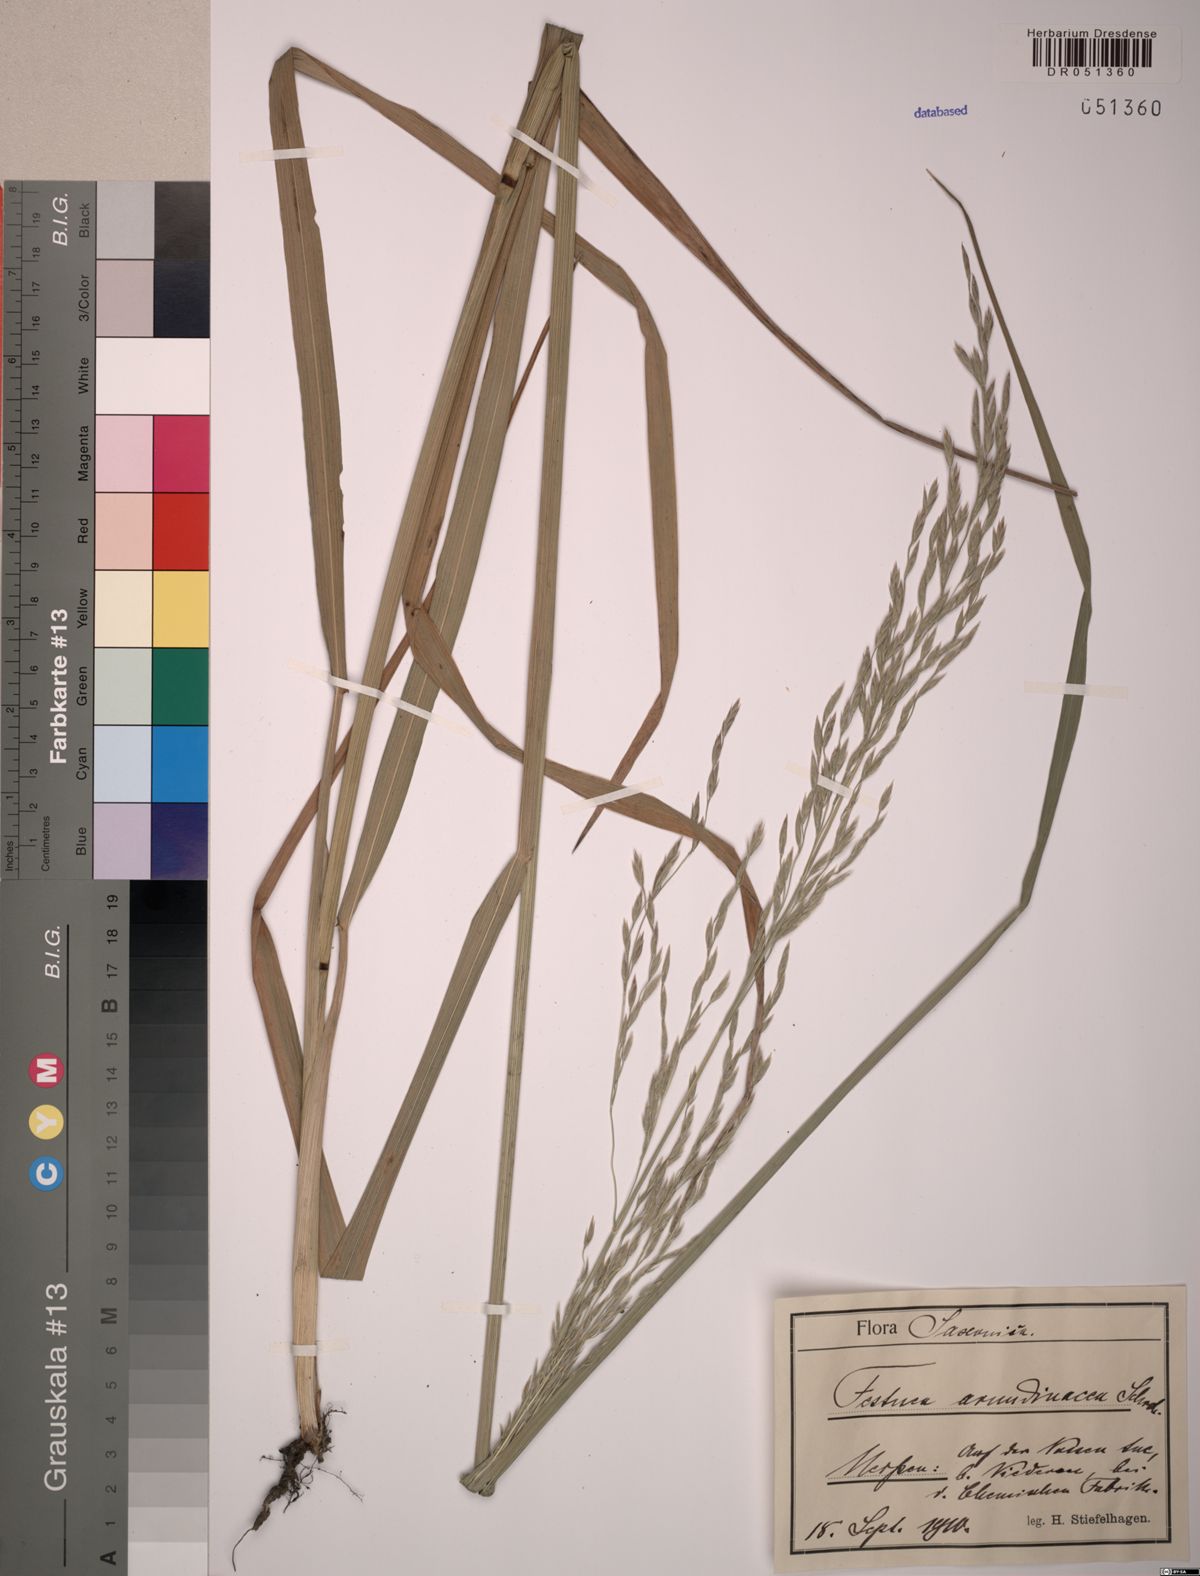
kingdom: Plantae
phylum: Tracheophyta
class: Liliopsida
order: Poales
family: Poaceae
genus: Lolium
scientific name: Lolium arundinaceum
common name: Reed fescue
